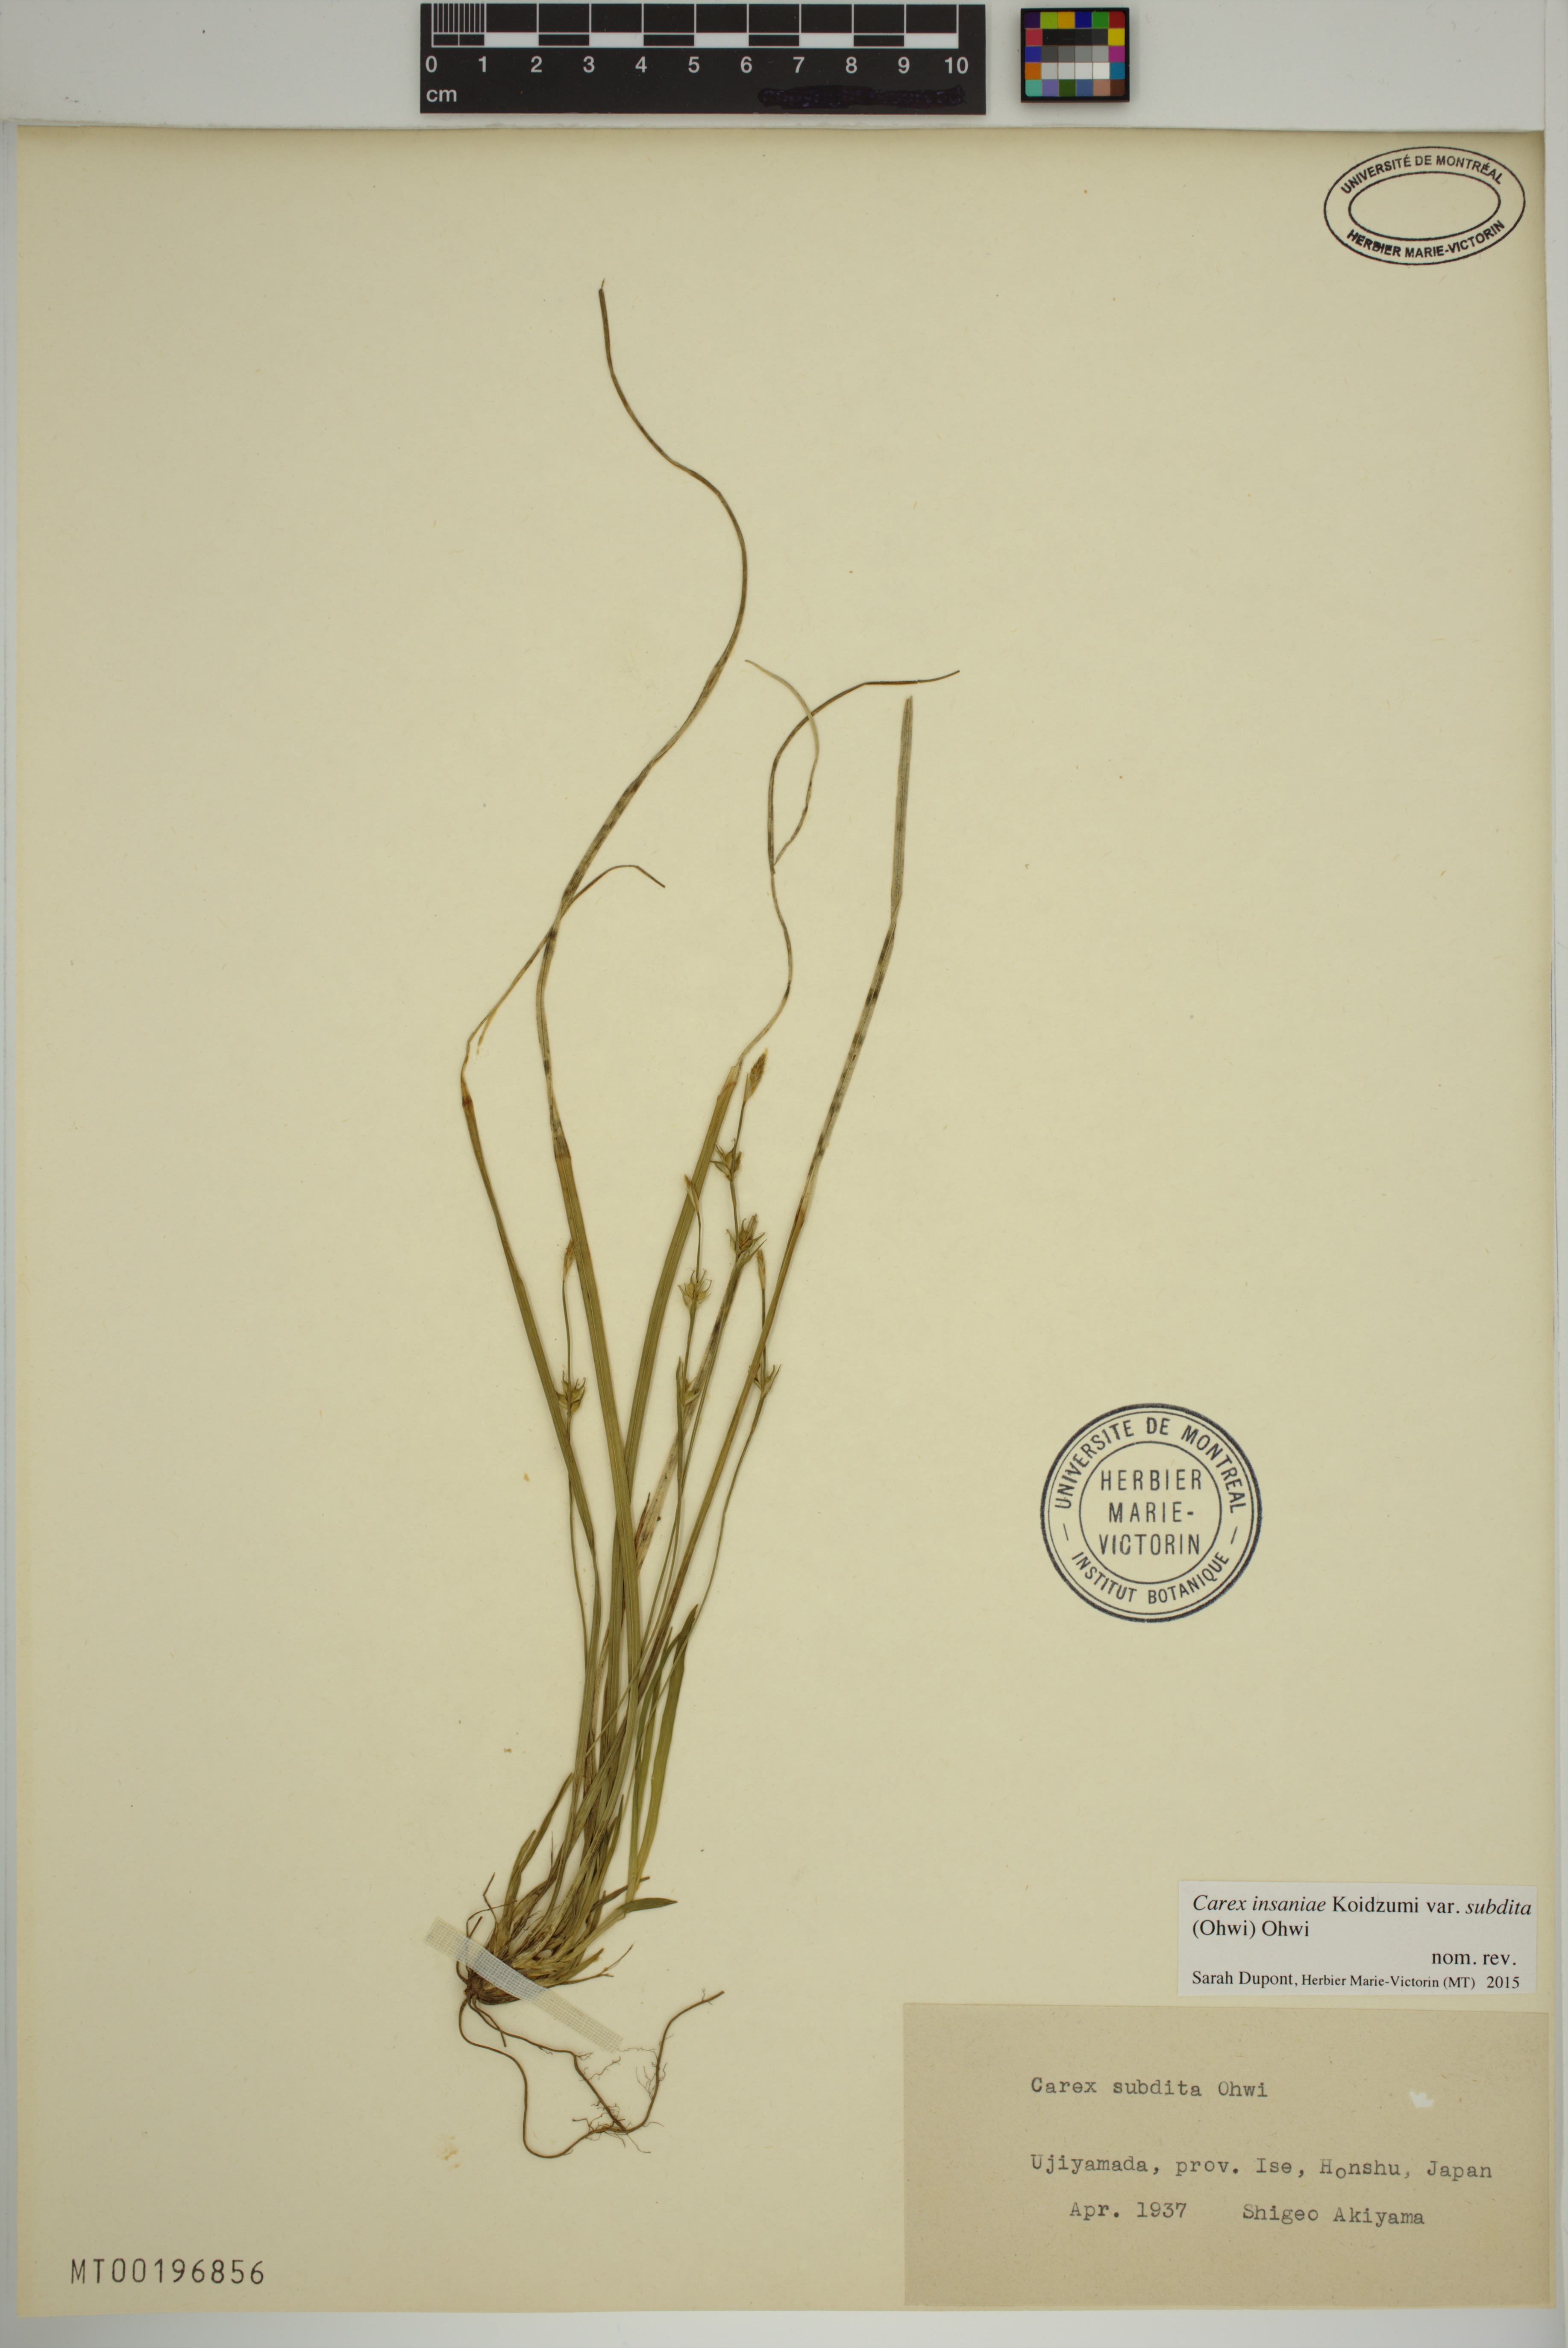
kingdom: Plantae
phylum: Tracheophyta
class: Liliopsida
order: Poales
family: Cyperaceae
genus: Carex
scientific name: Carex insaniae
